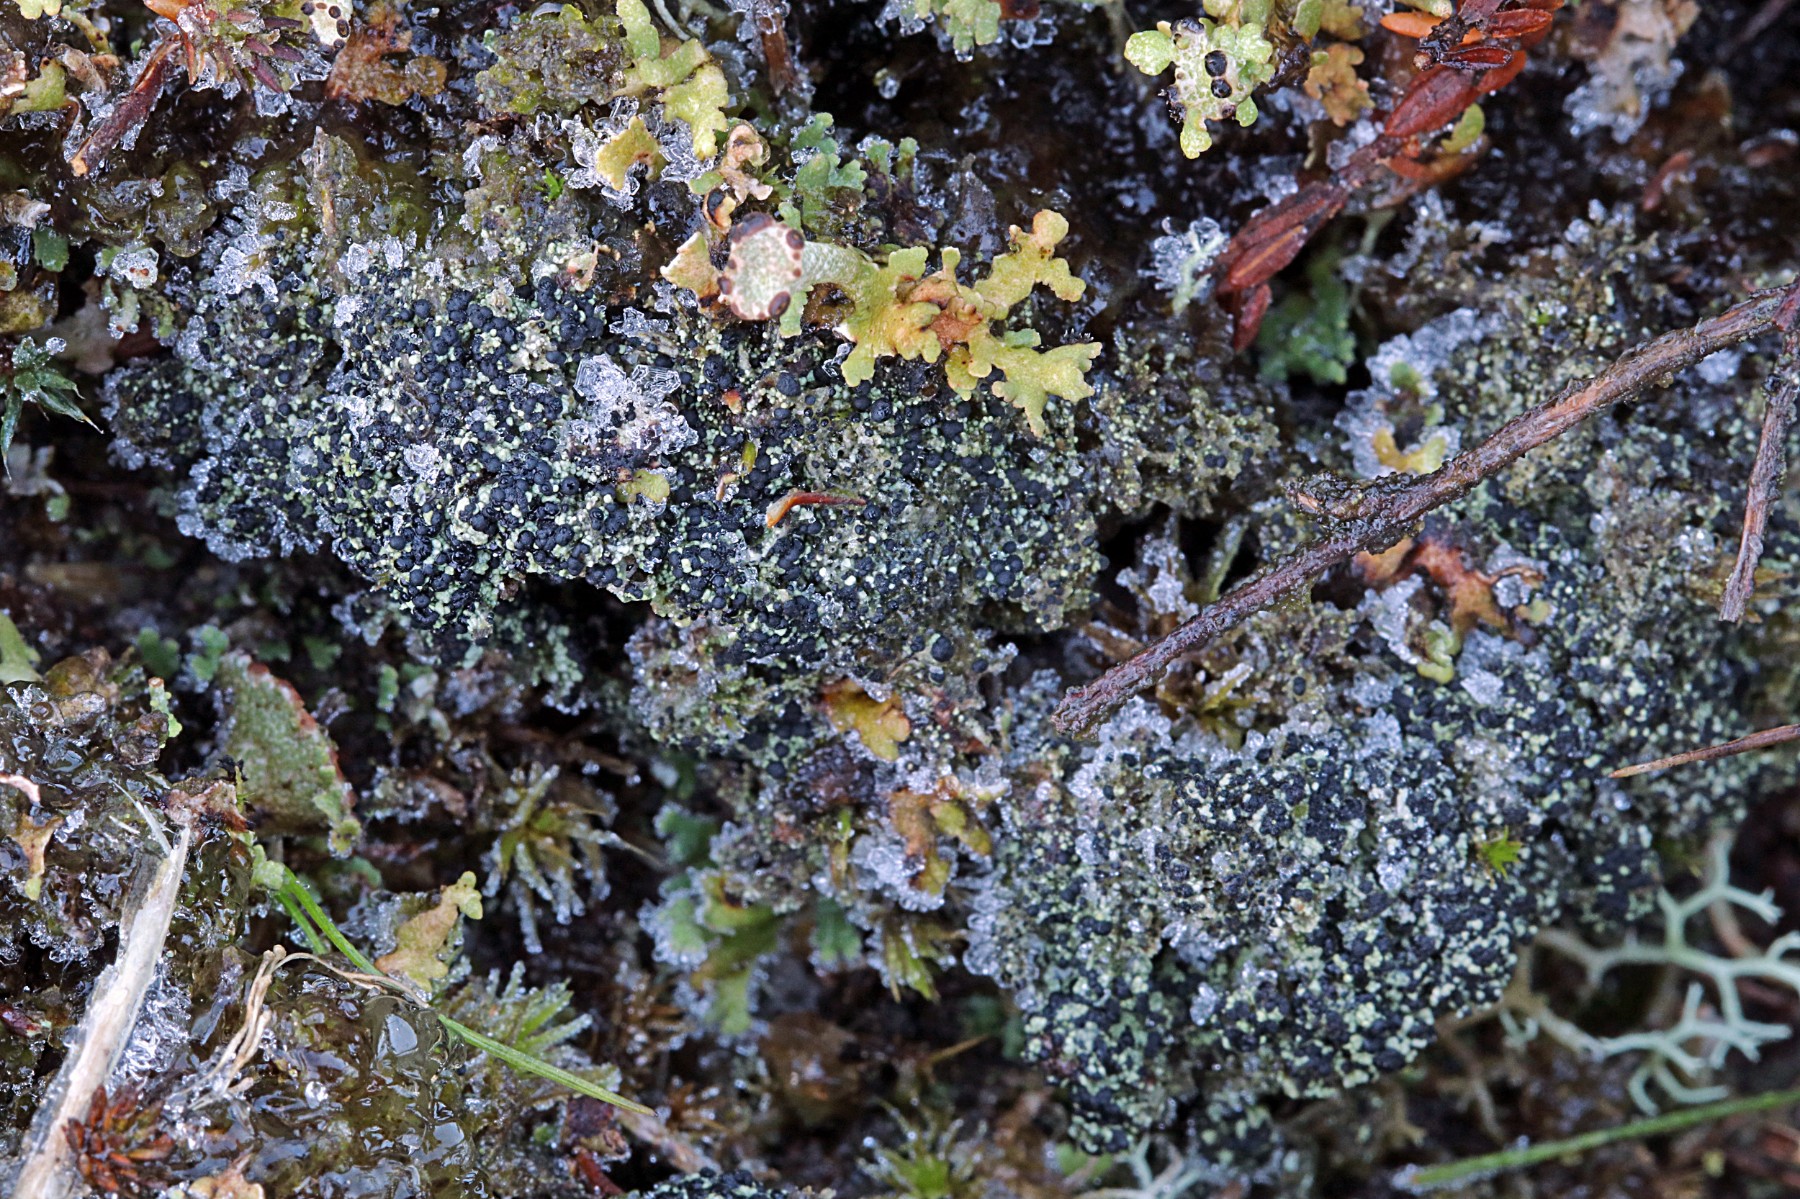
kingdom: Fungi
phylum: Ascomycota
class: Lecanoromycetes
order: Lecanorales
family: Byssolomataceae
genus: Micarea
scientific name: Micarea lignaria
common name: tørve-knaplav
